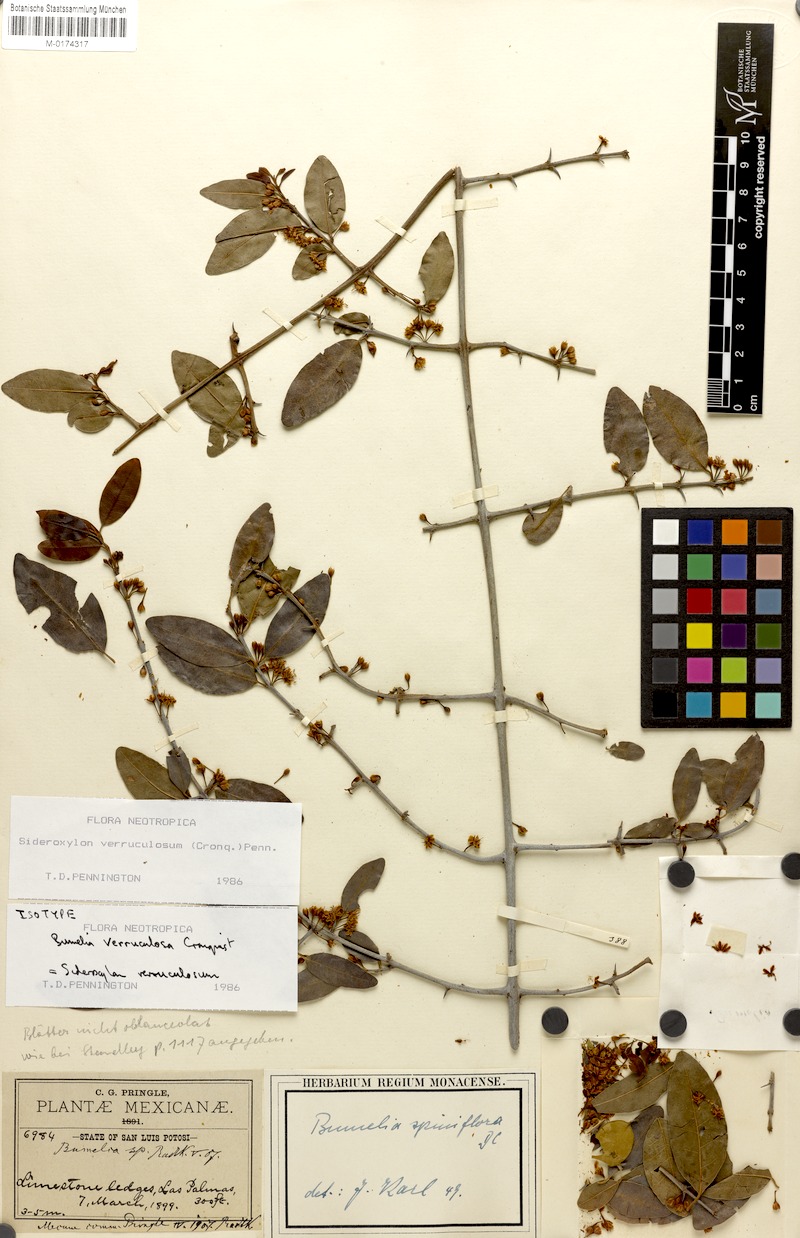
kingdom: Plantae
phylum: Tracheophyta
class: Magnoliopsida
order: Ericales
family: Sapotaceae
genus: Sideroxylon
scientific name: Sideroxylon verruculosum
